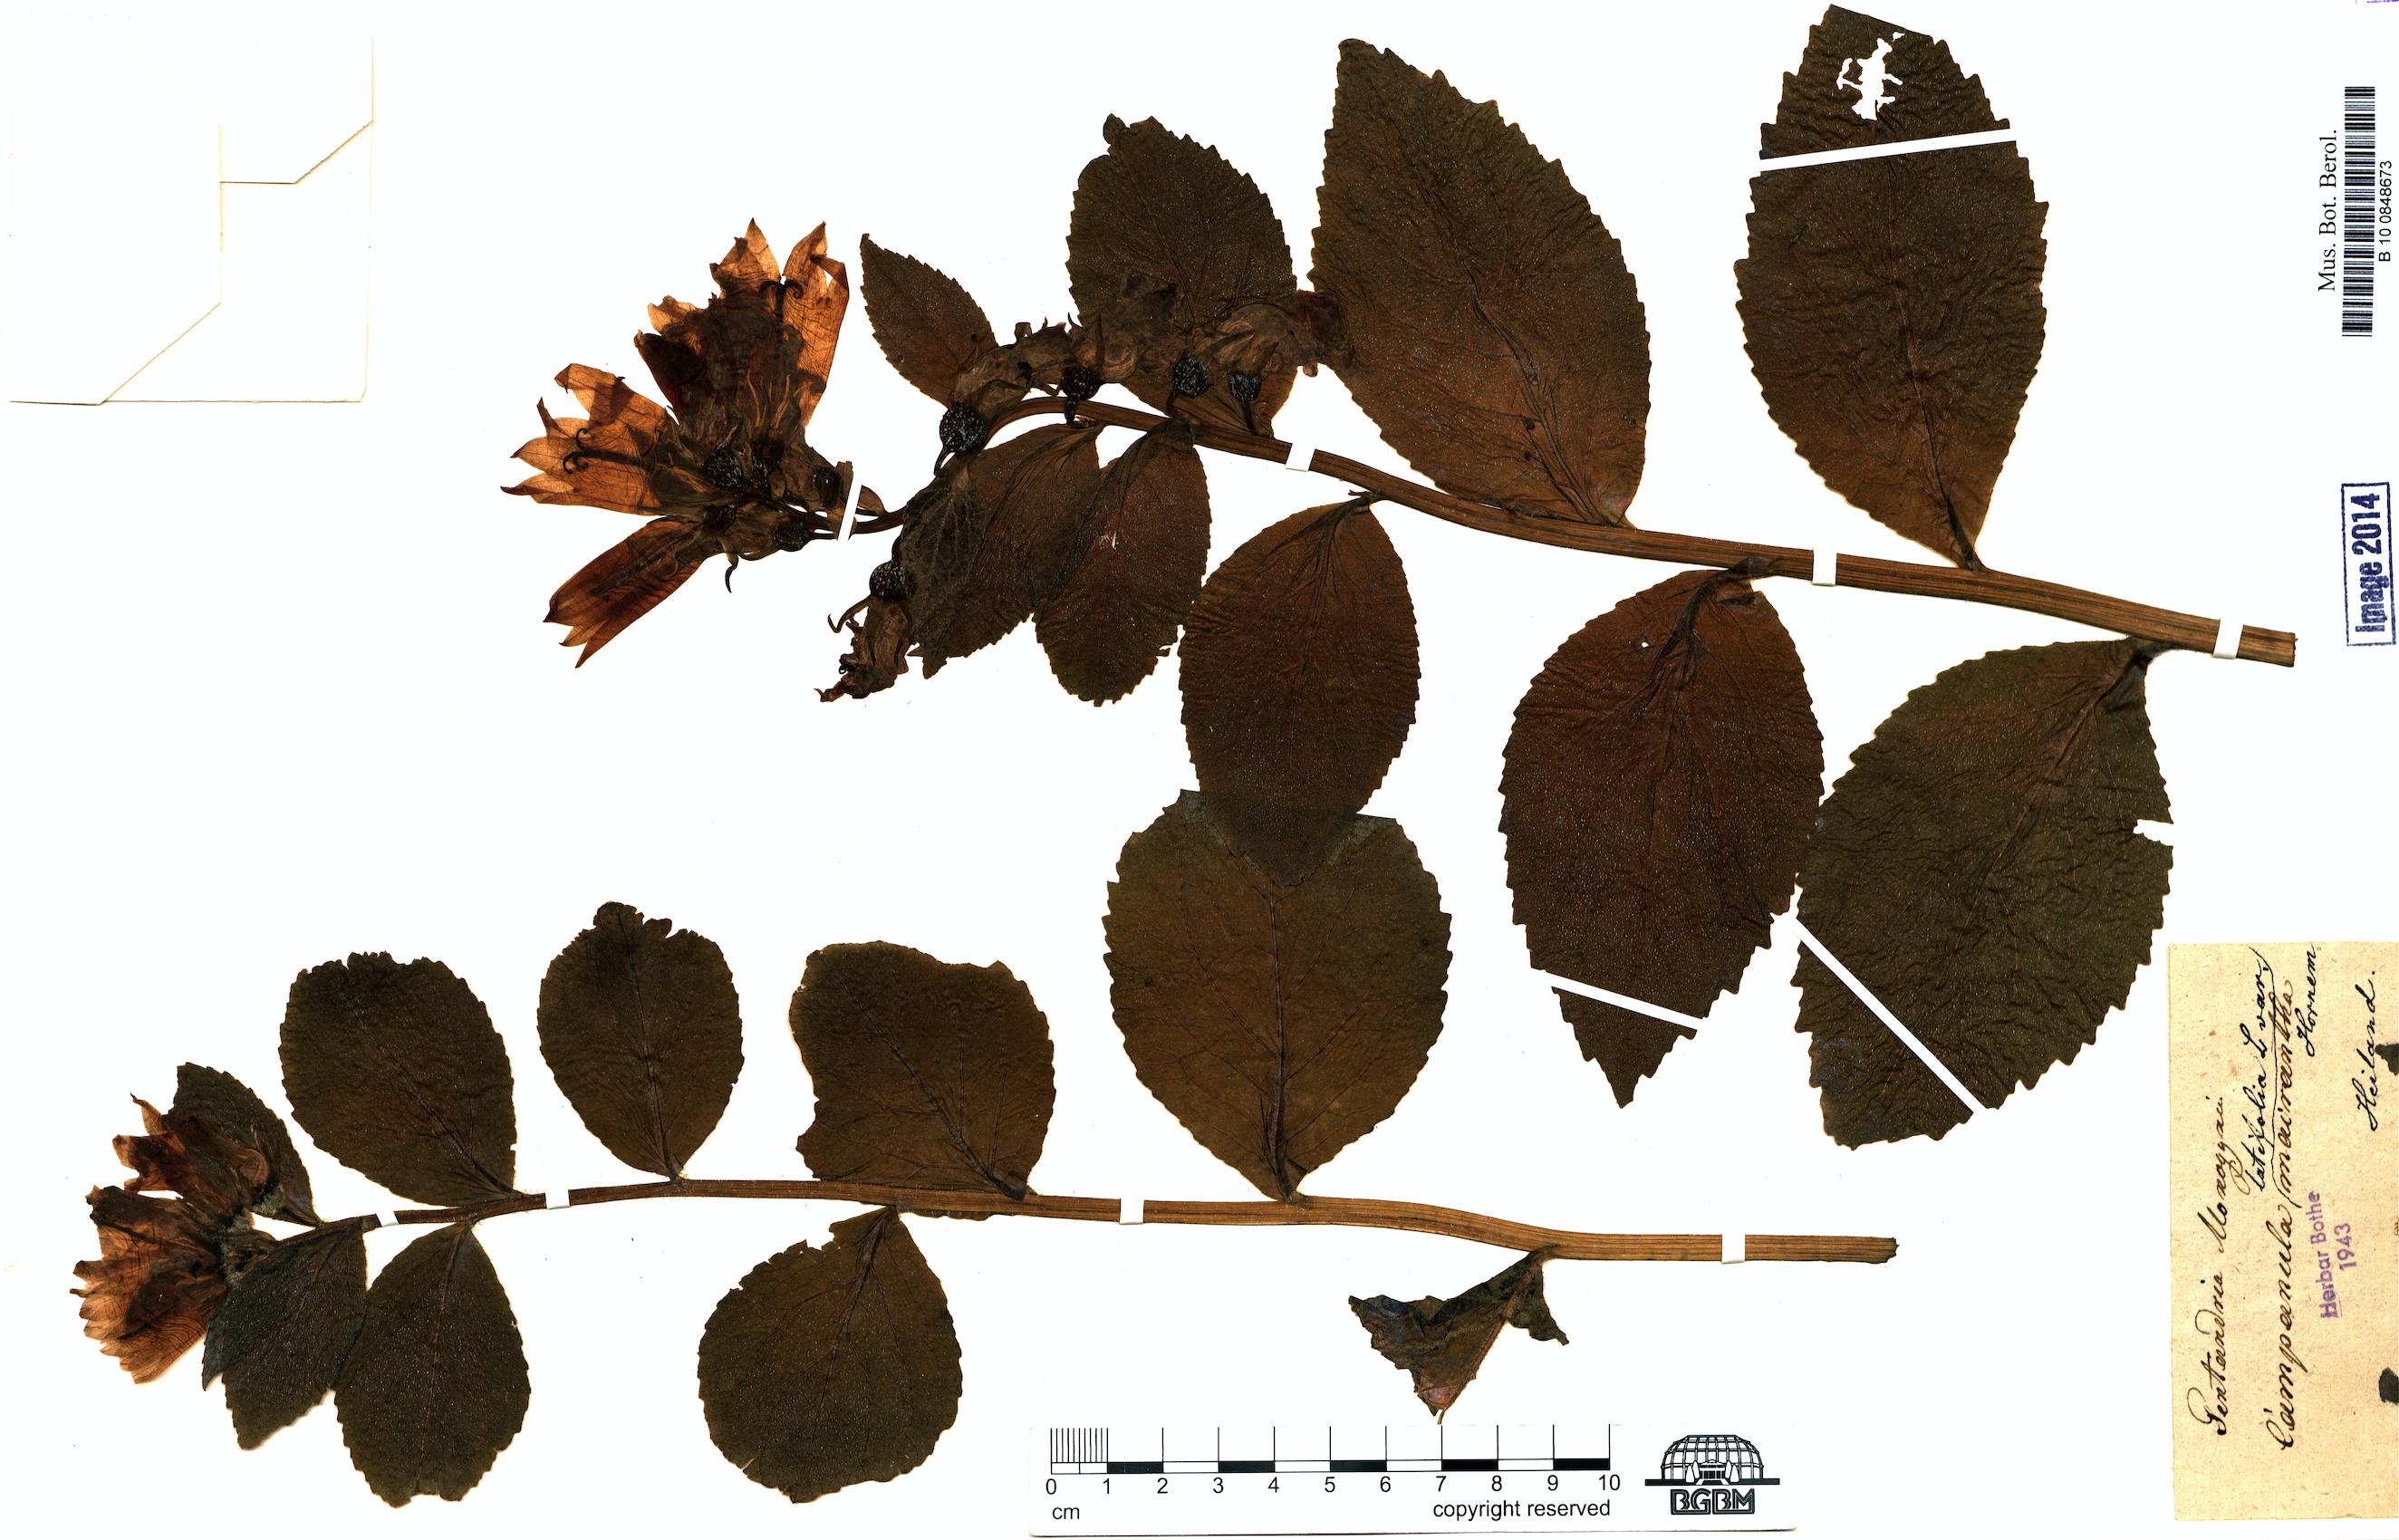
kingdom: Plantae
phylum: Tracheophyta
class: Magnoliopsida
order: Asterales
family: Campanulaceae
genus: Campanula
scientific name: Campanula latifolia
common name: Giant bellflower
